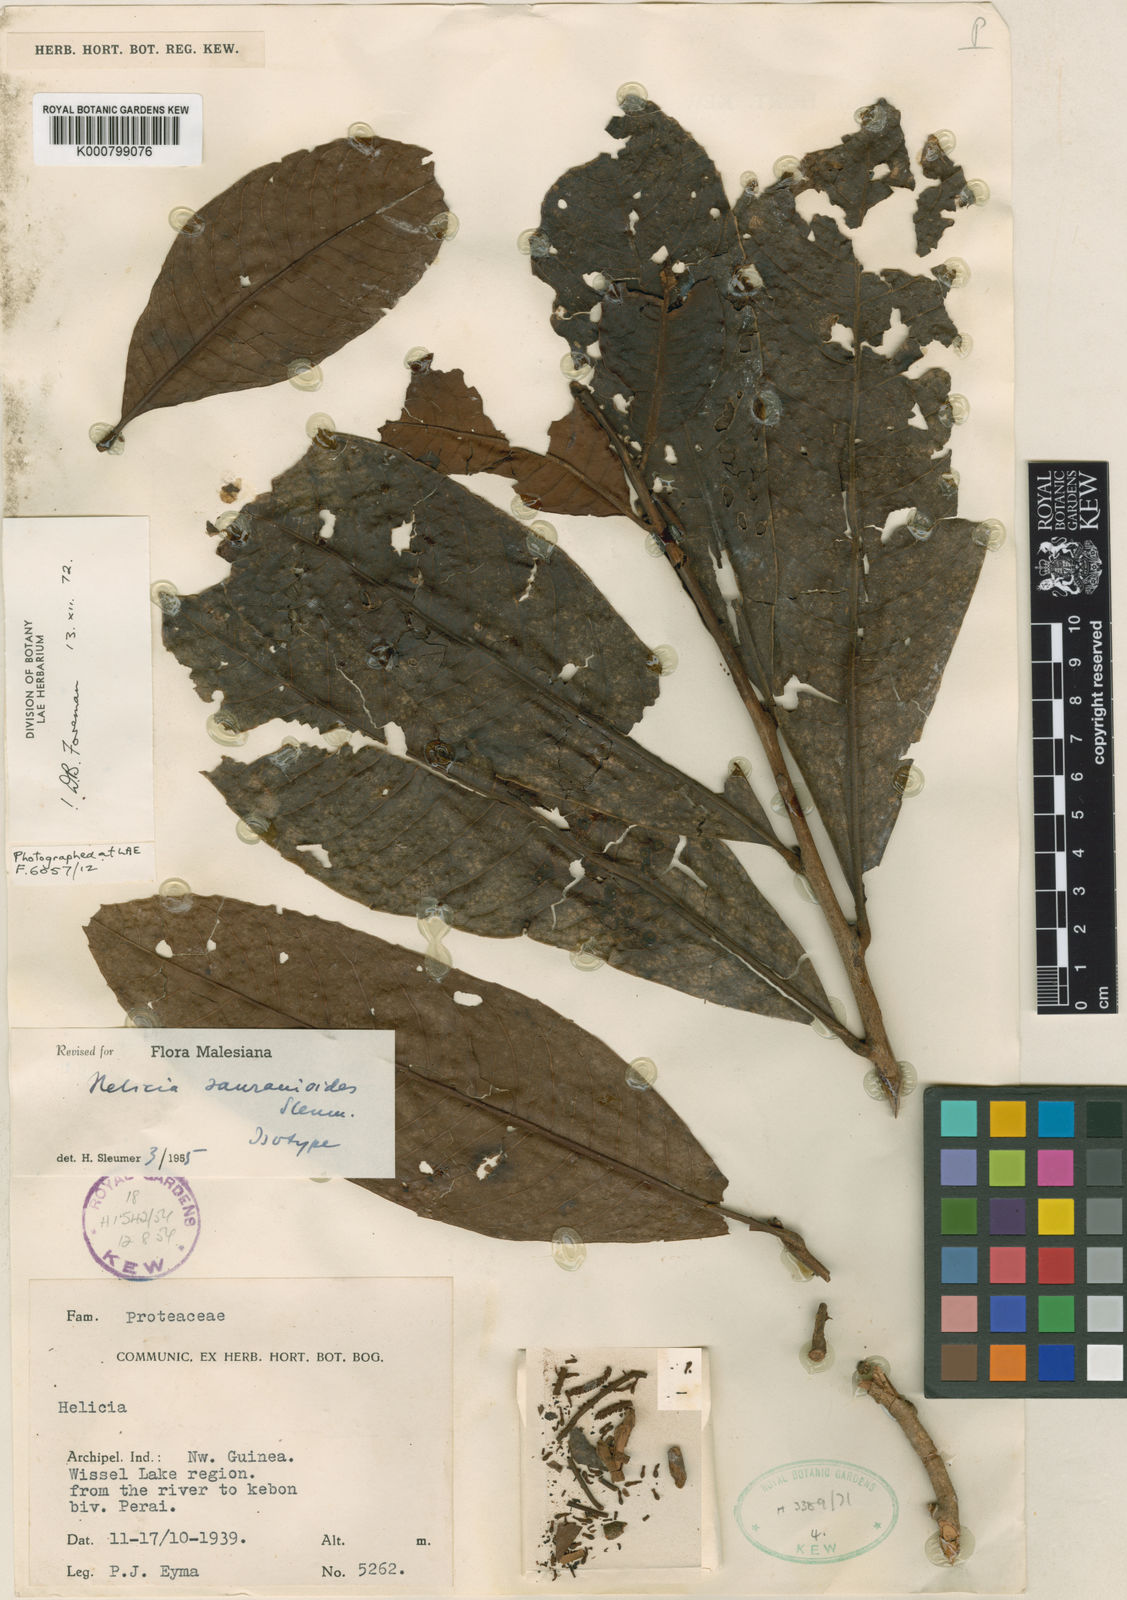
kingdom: Plantae
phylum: Tracheophyta
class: Magnoliopsida
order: Proteales
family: Proteaceae
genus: Helicia
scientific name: Helicia saurauioides
